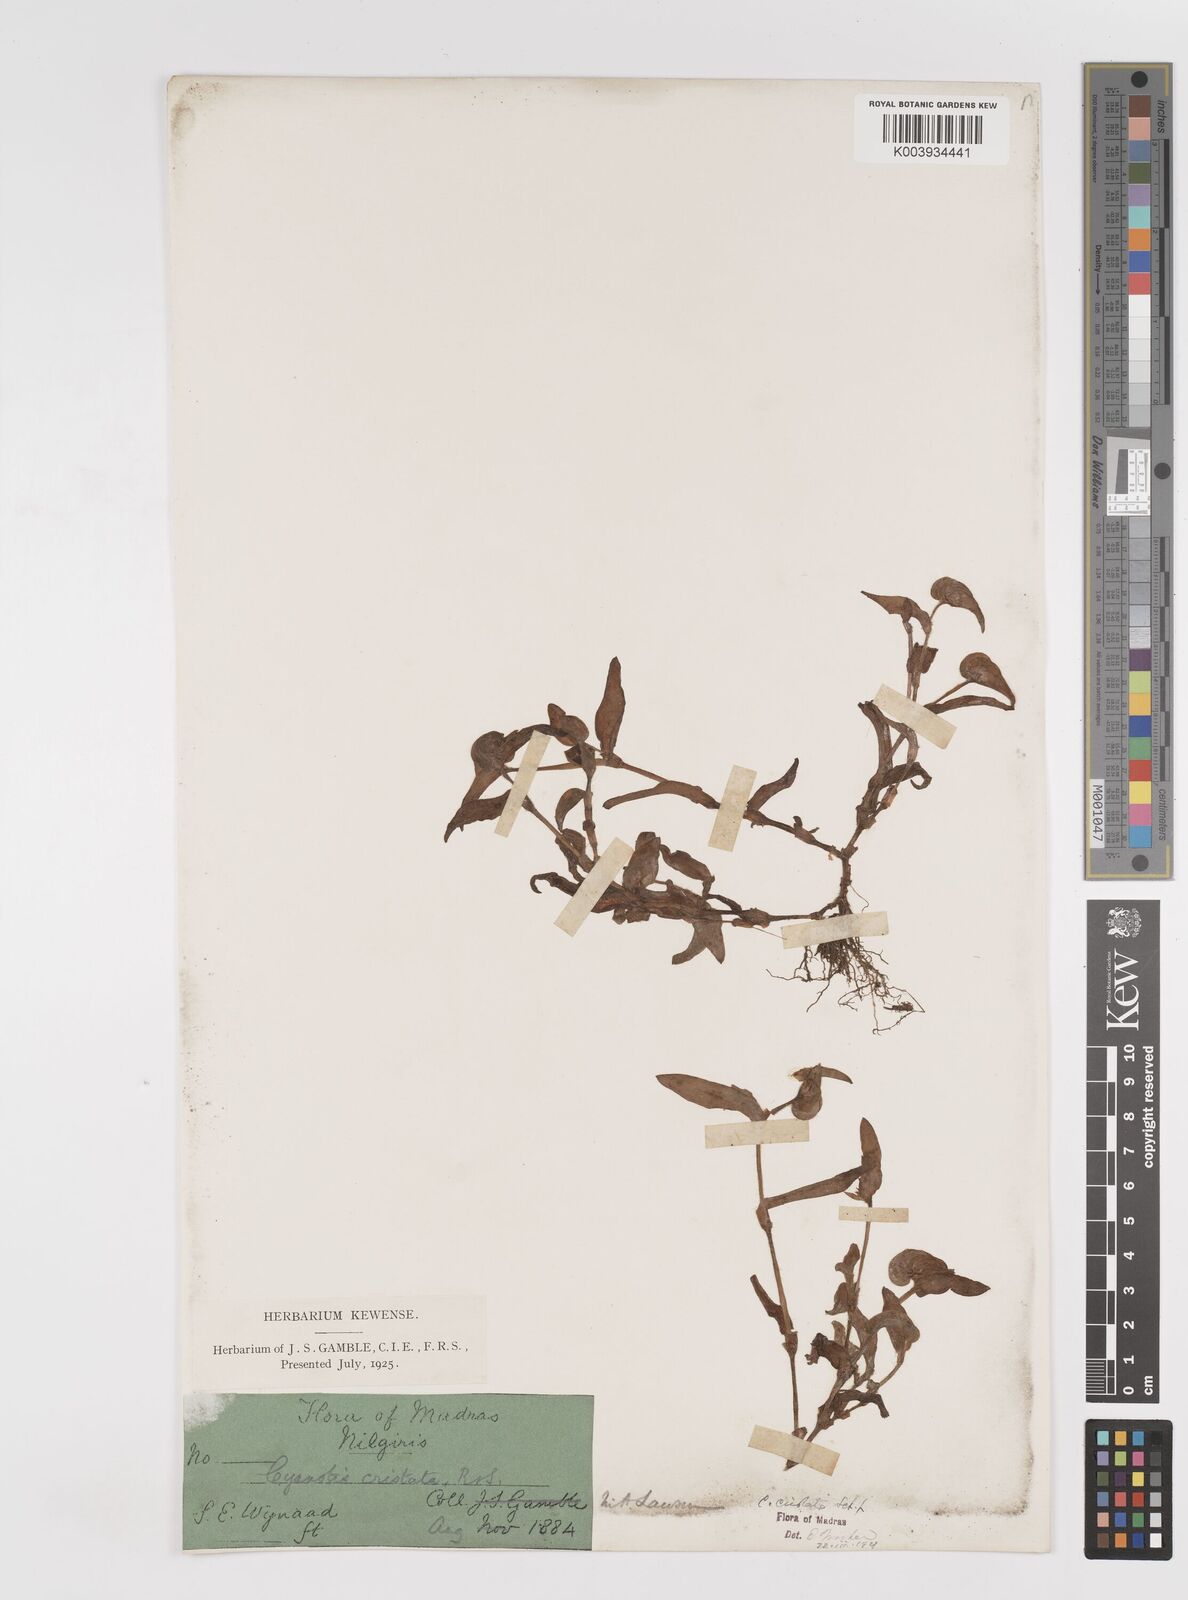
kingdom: Plantae
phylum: Tracheophyta
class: Liliopsida
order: Commelinales
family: Commelinaceae
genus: Cyanotis
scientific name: Cyanotis cristata
